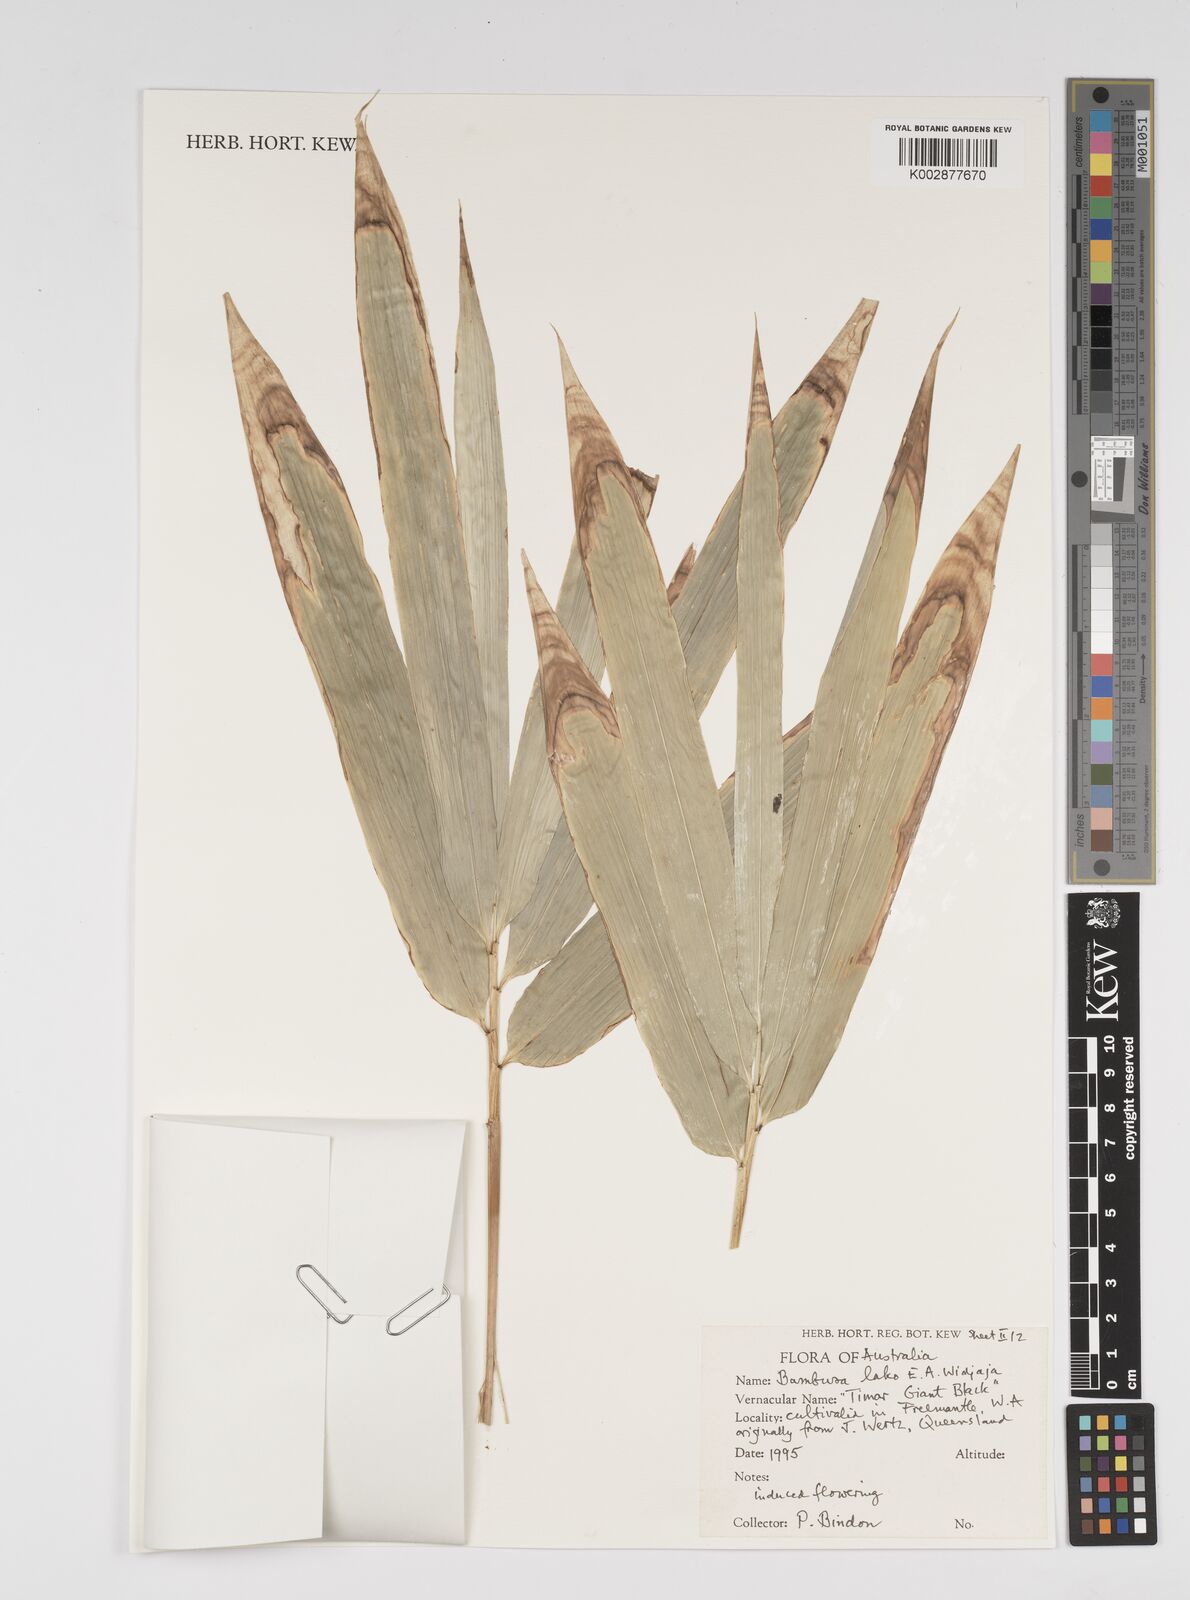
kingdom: Plantae
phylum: Tracheophyta
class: Liliopsida
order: Poales
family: Poaceae
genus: Bambusa
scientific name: Bambusa lako
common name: Timor black bamboo
